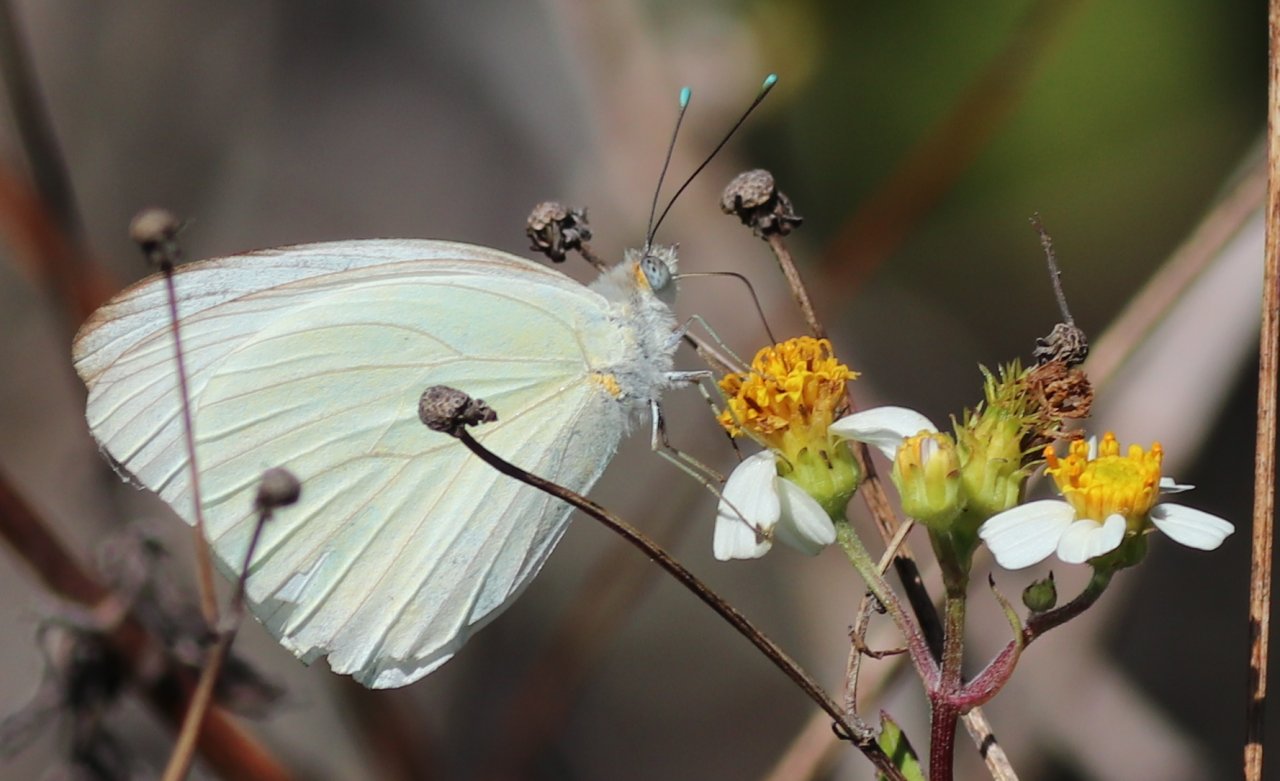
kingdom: Animalia
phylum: Arthropoda
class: Insecta
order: Lepidoptera
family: Pieridae
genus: Ascia
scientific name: Ascia monuste
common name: Great Southern White
